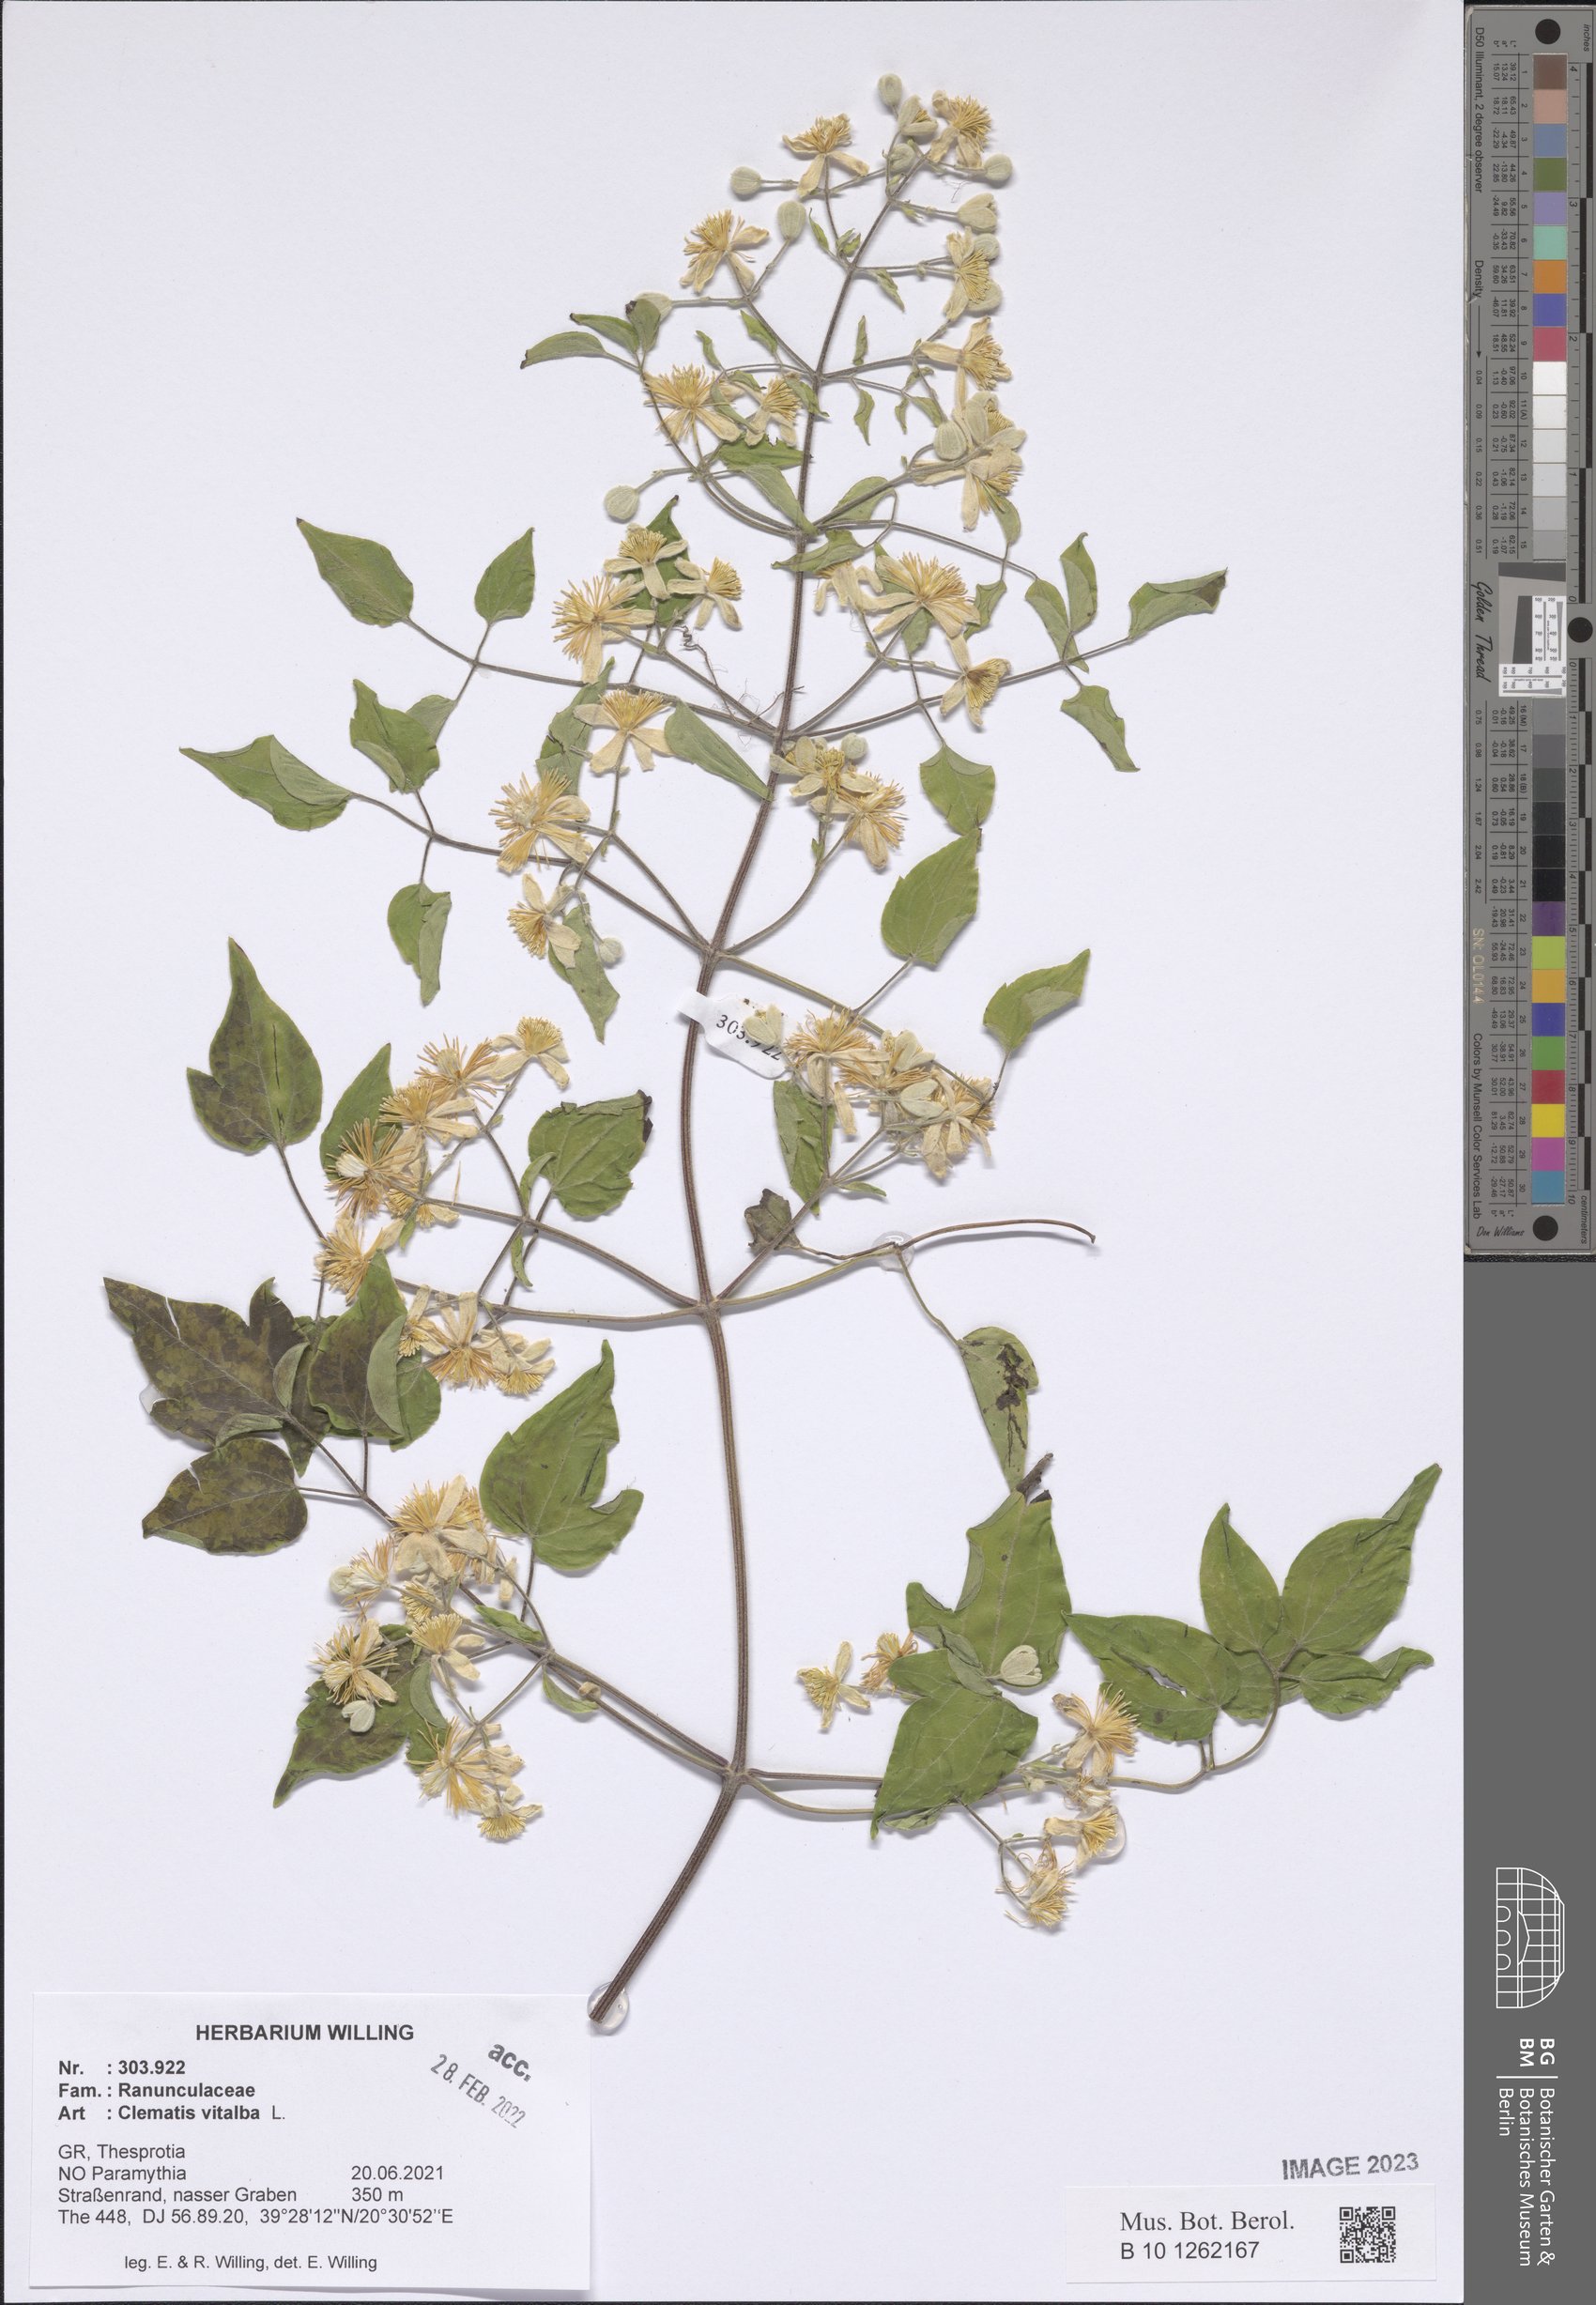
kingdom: Plantae
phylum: Tracheophyta
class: Magnoliopsida
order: Ranunculales
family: Ranunculaceae
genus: Clematis
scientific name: Clematis vitalba
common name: Evergreen clematis
